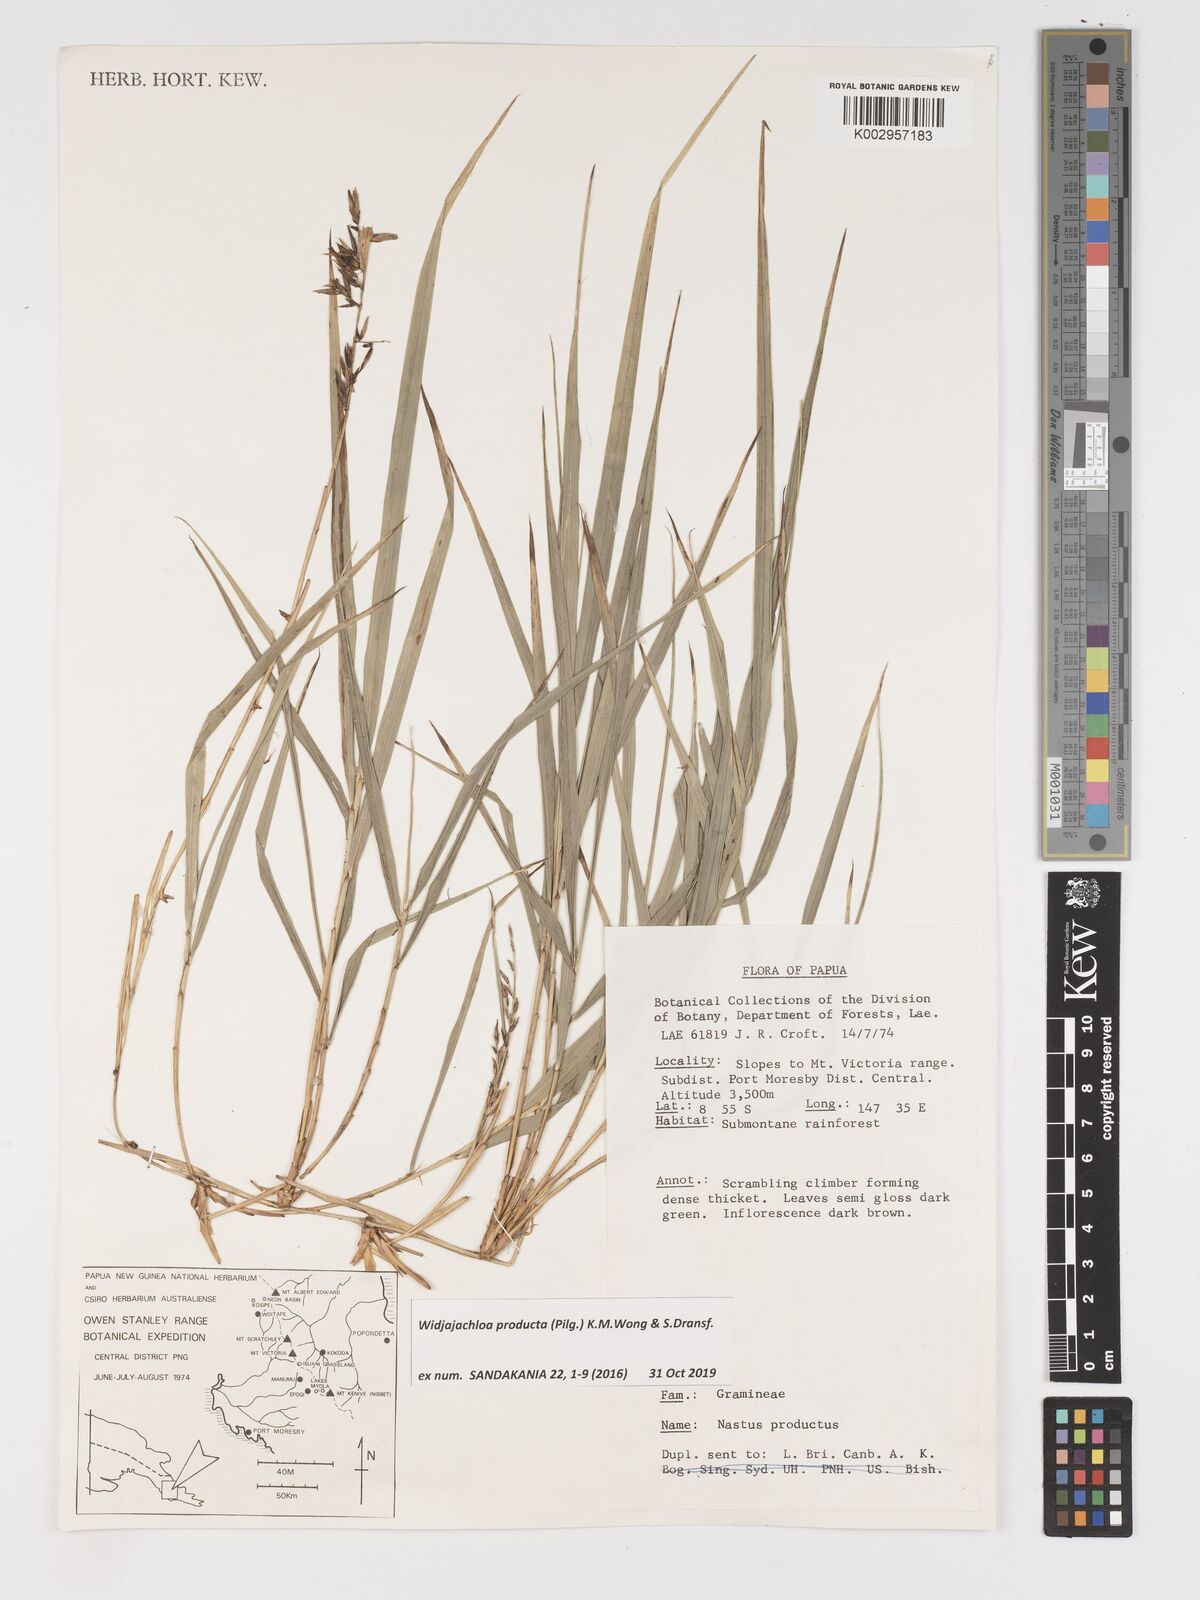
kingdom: Plantae
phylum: Tracheophyta
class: Liliopsida
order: Poales
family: Poaceae
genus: Widjajachloa
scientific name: Widjajachloa producta
